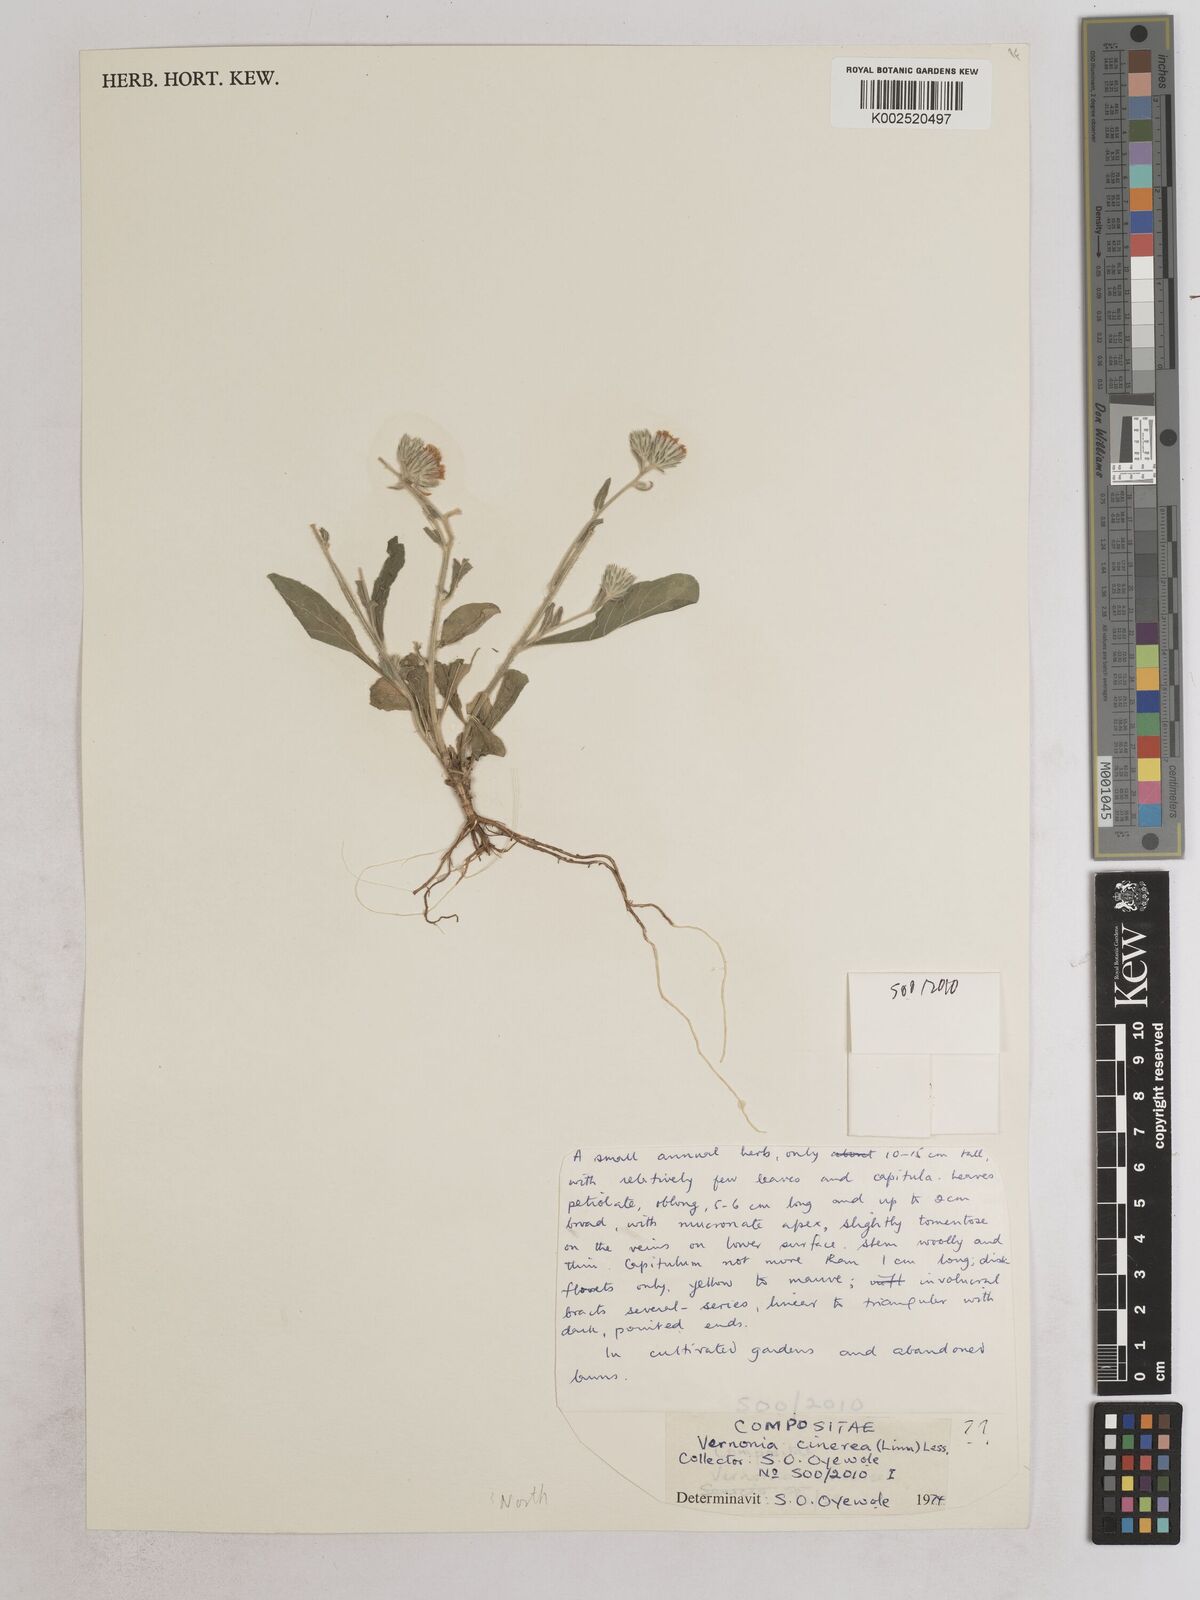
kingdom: Plantae
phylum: Tracheophyta
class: Magnoliopsida
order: Asterales
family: Asteraceae
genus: Vernoniastrum
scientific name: Vernoniastrum ambiguum
